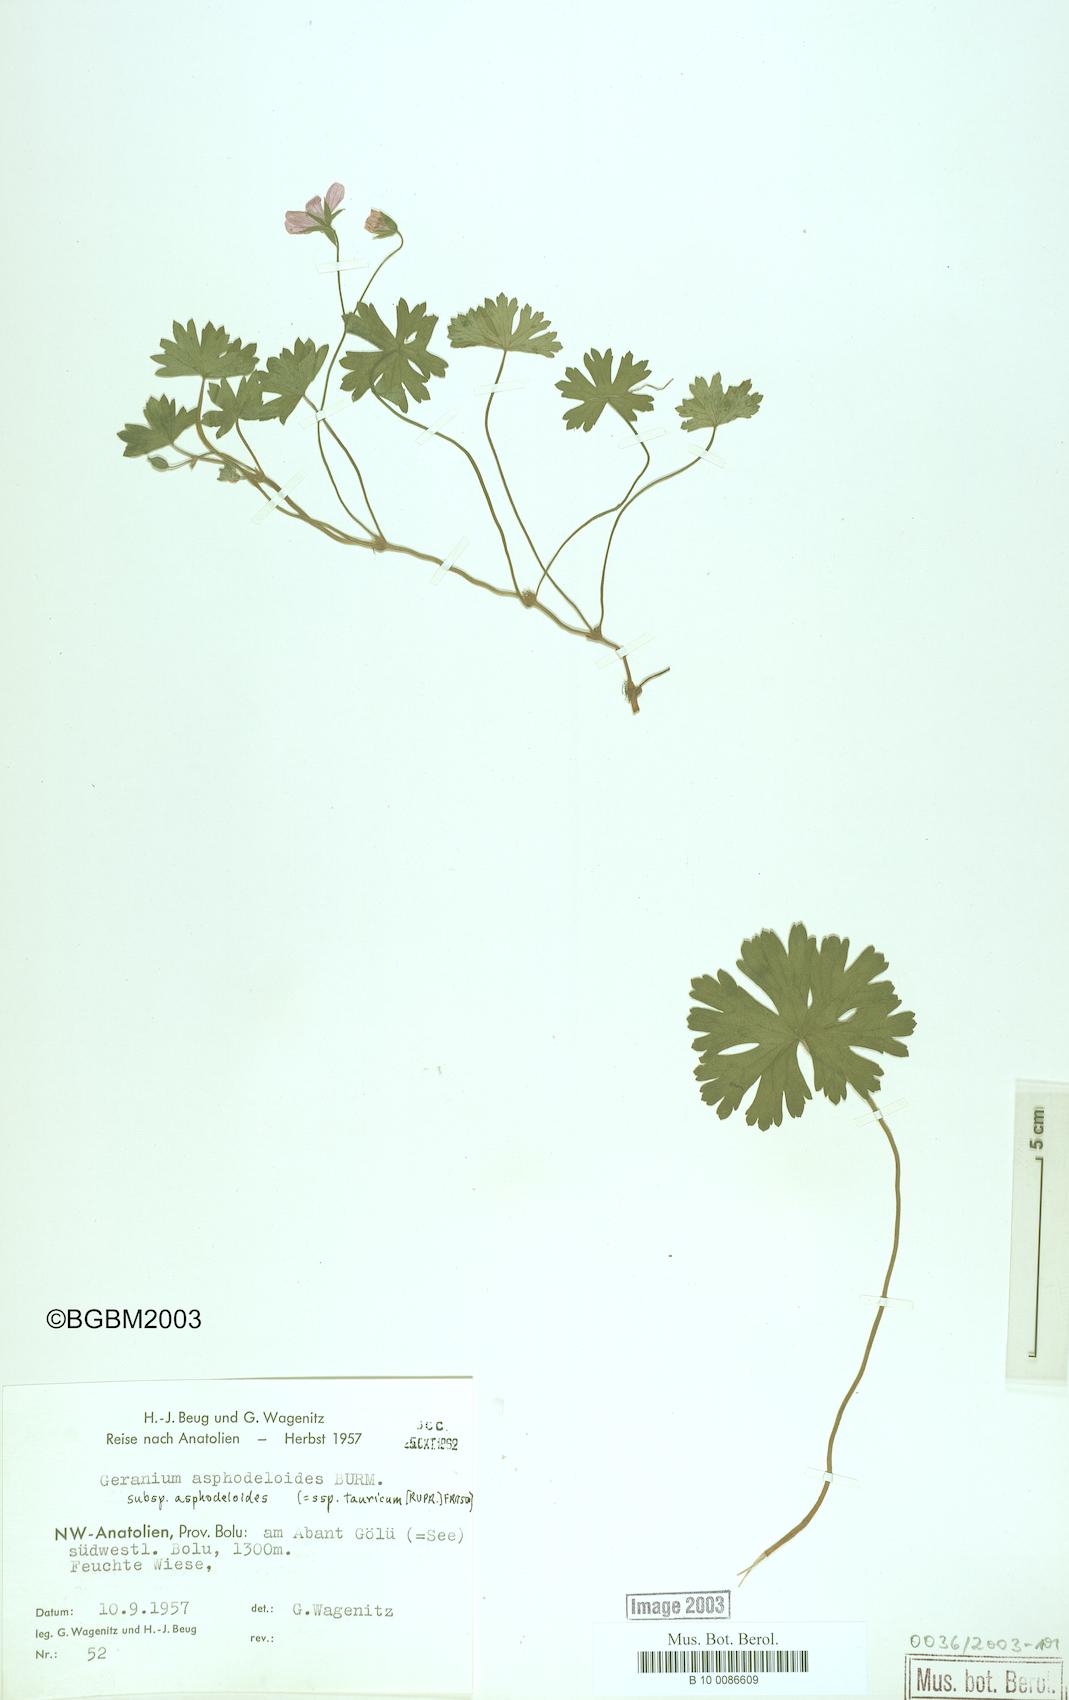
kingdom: Plantae
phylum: Tracheophyta
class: Magnoliopsida
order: Geraniales
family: Geraniaceae
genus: Geranium
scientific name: Geranium asphodeloides
